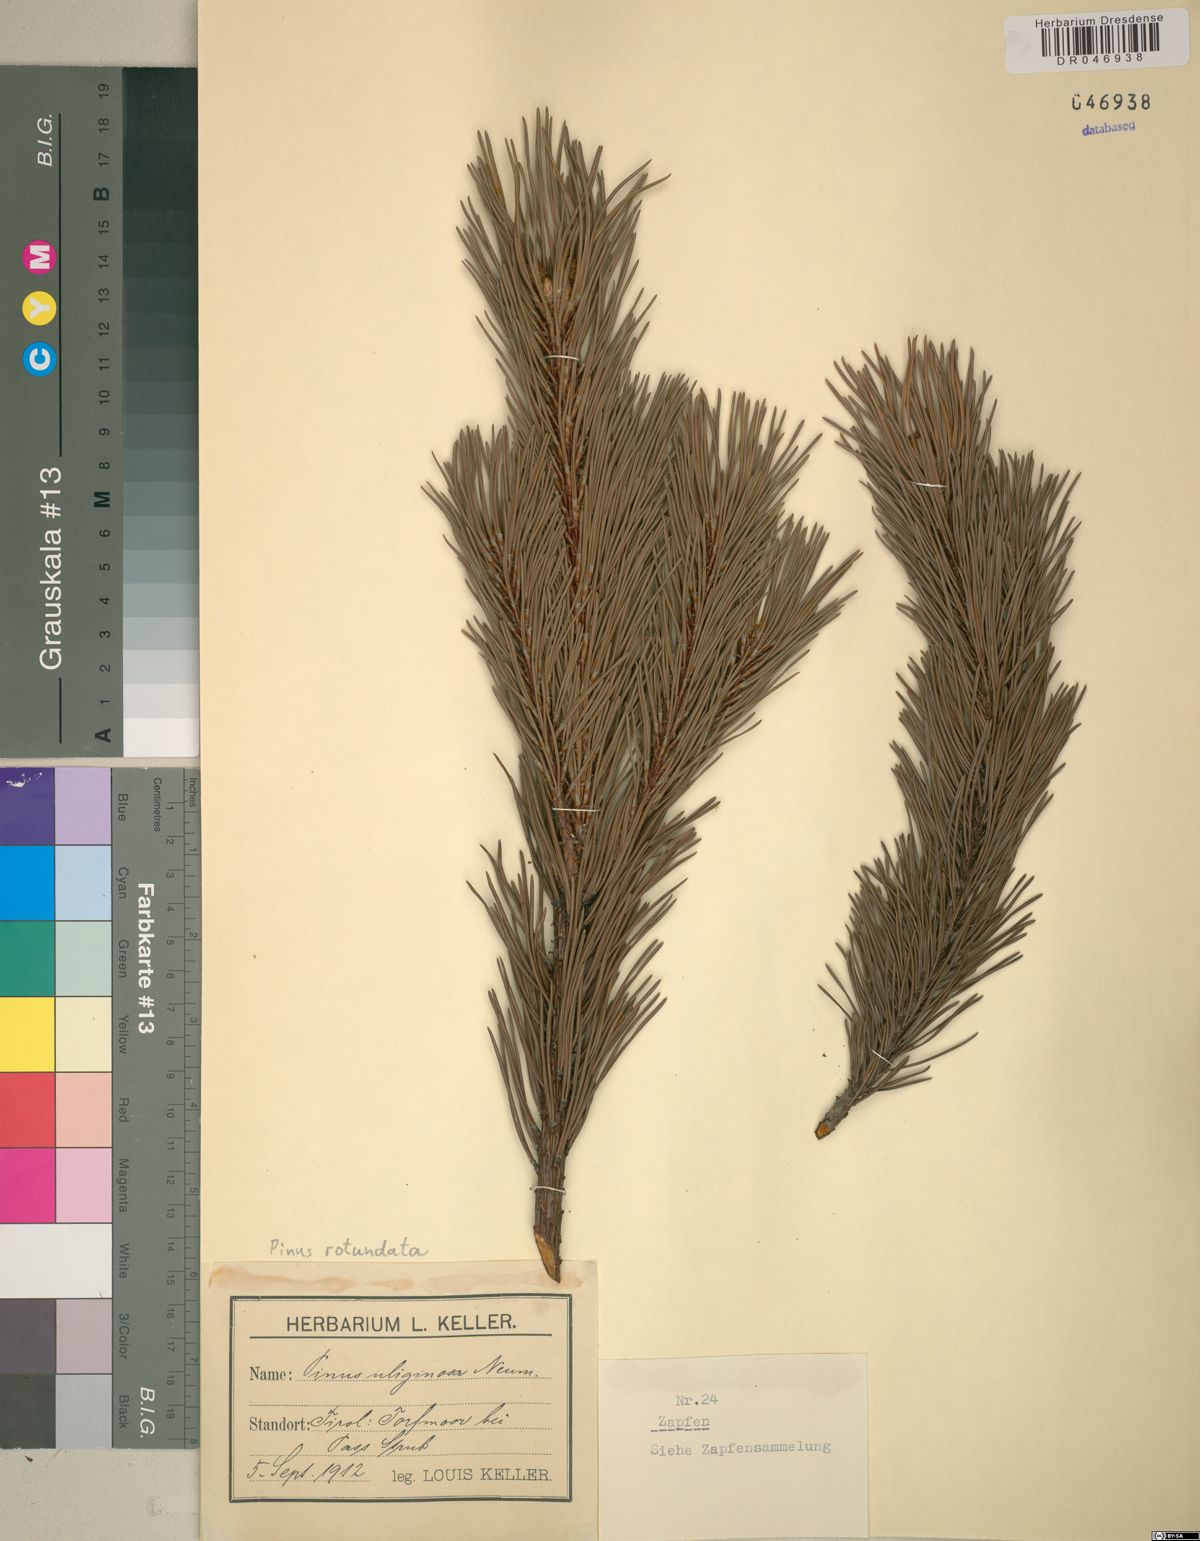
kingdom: Plantae
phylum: Tracheophyta
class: Pinopsida
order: Pinales
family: Pinaceae
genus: Pinus
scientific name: Pinus mugo
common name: Mugo pine
